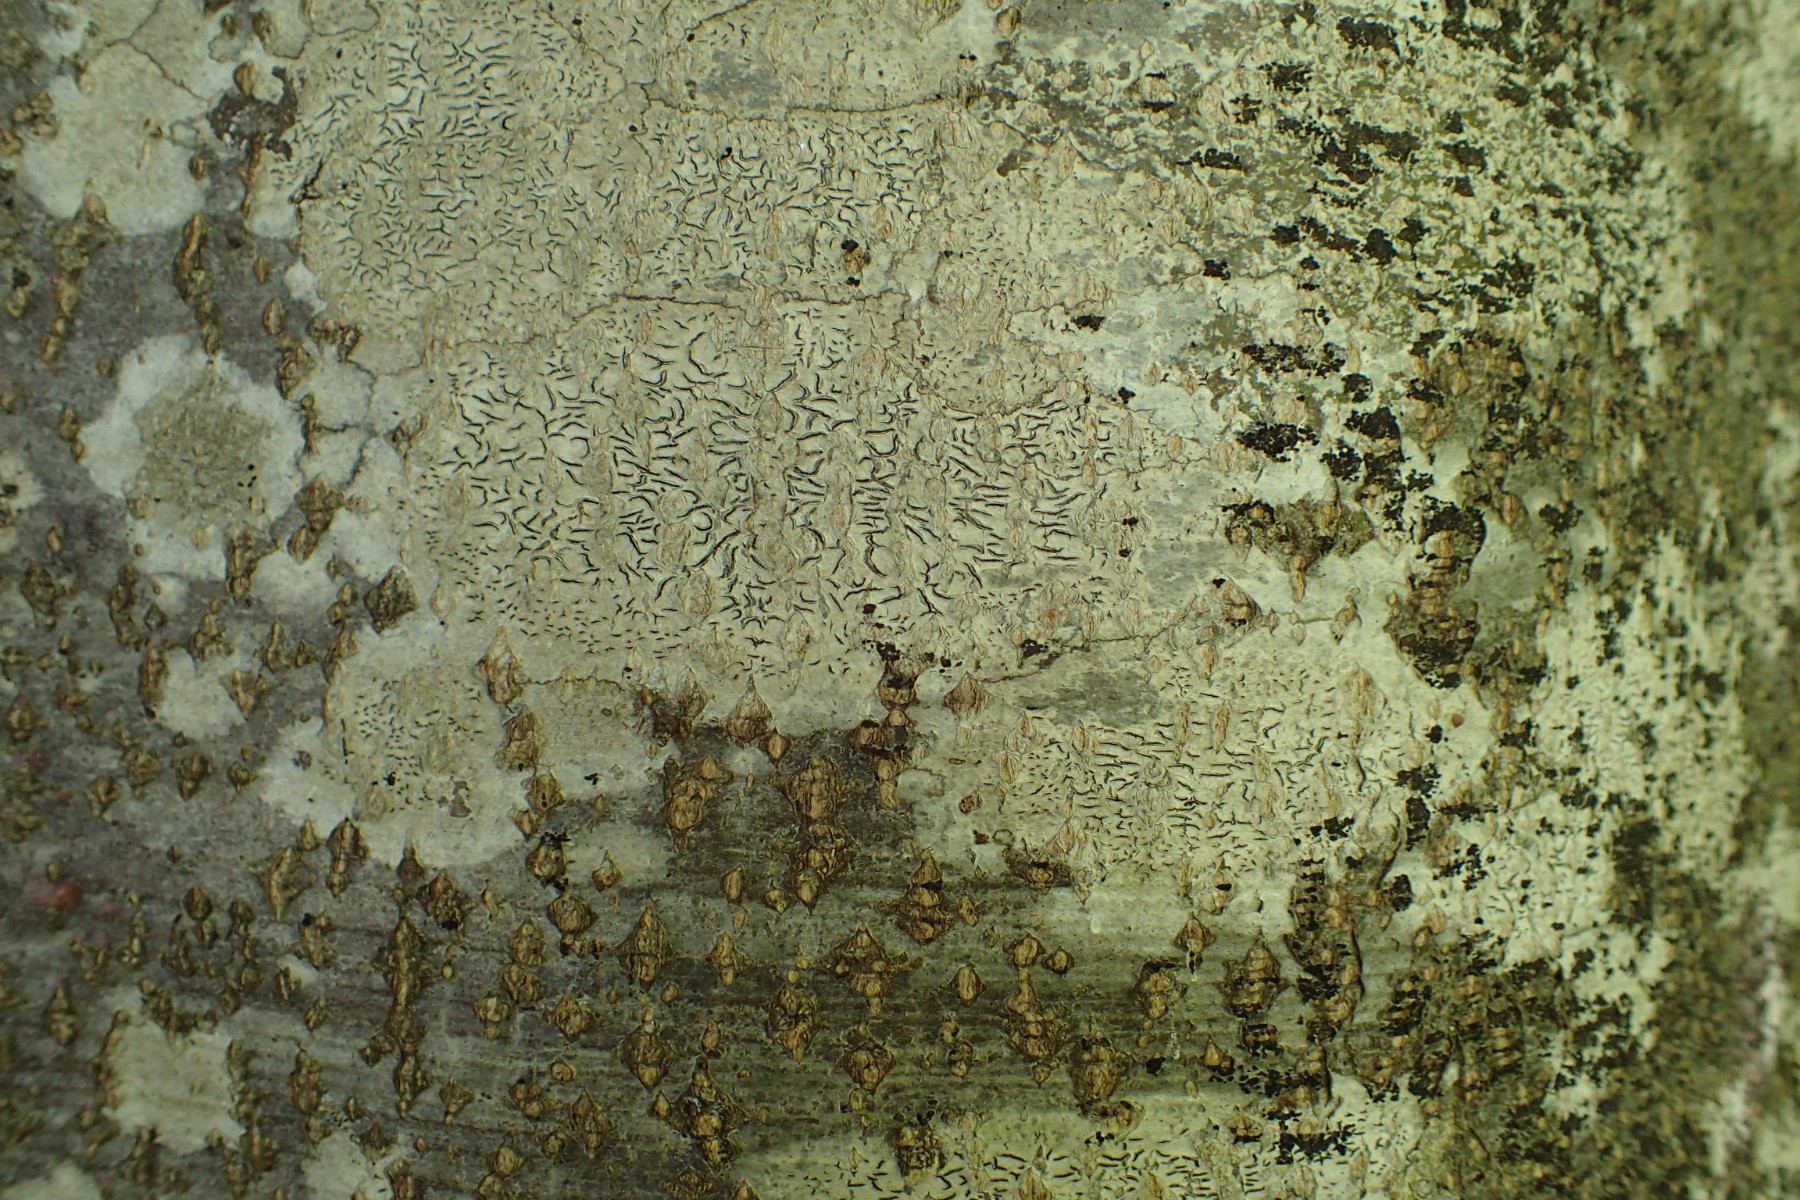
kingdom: Fungi
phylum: Ascomycota
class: Lecanoromycetes
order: Ostropales
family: Graphidaceae
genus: Graphis
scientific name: Graphis scripta
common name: almindelig skriftlav
